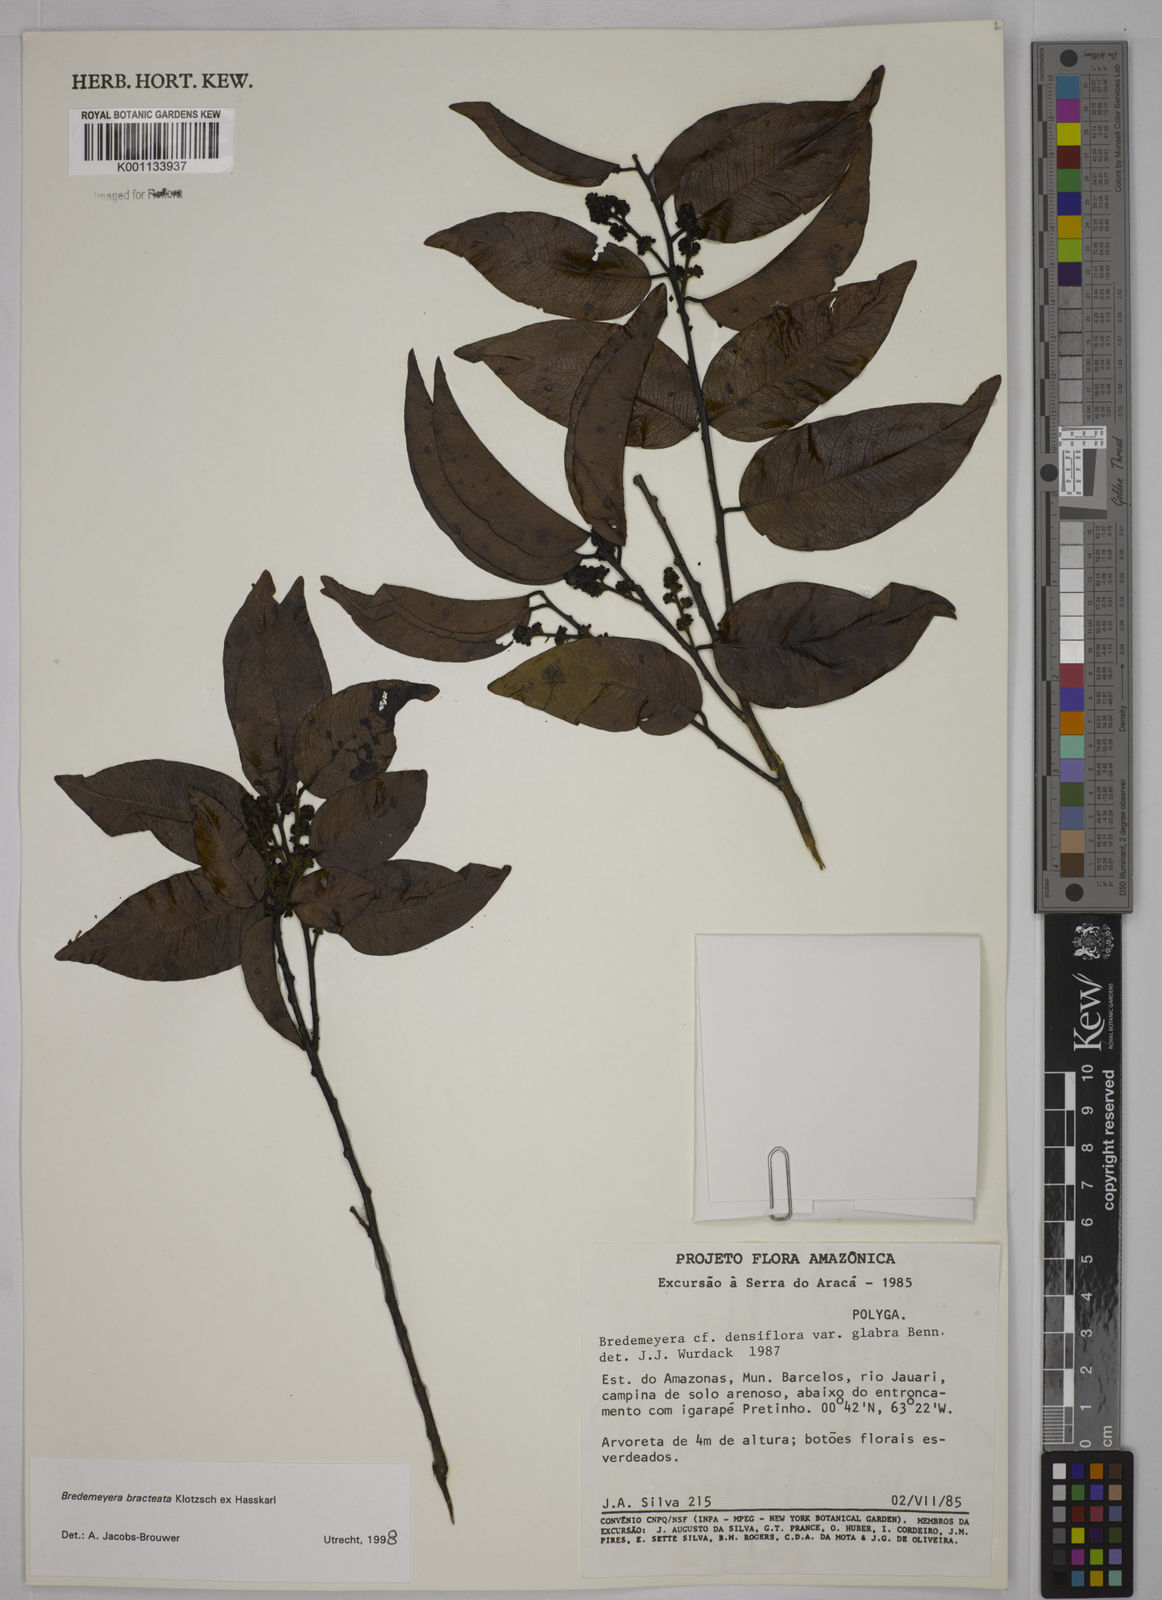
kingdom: Plantae
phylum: Tracheophyta
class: Magnoliopsida
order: Fabales
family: Polygalaceae
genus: Bredemeyera
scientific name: Bredemeyera bracteata
